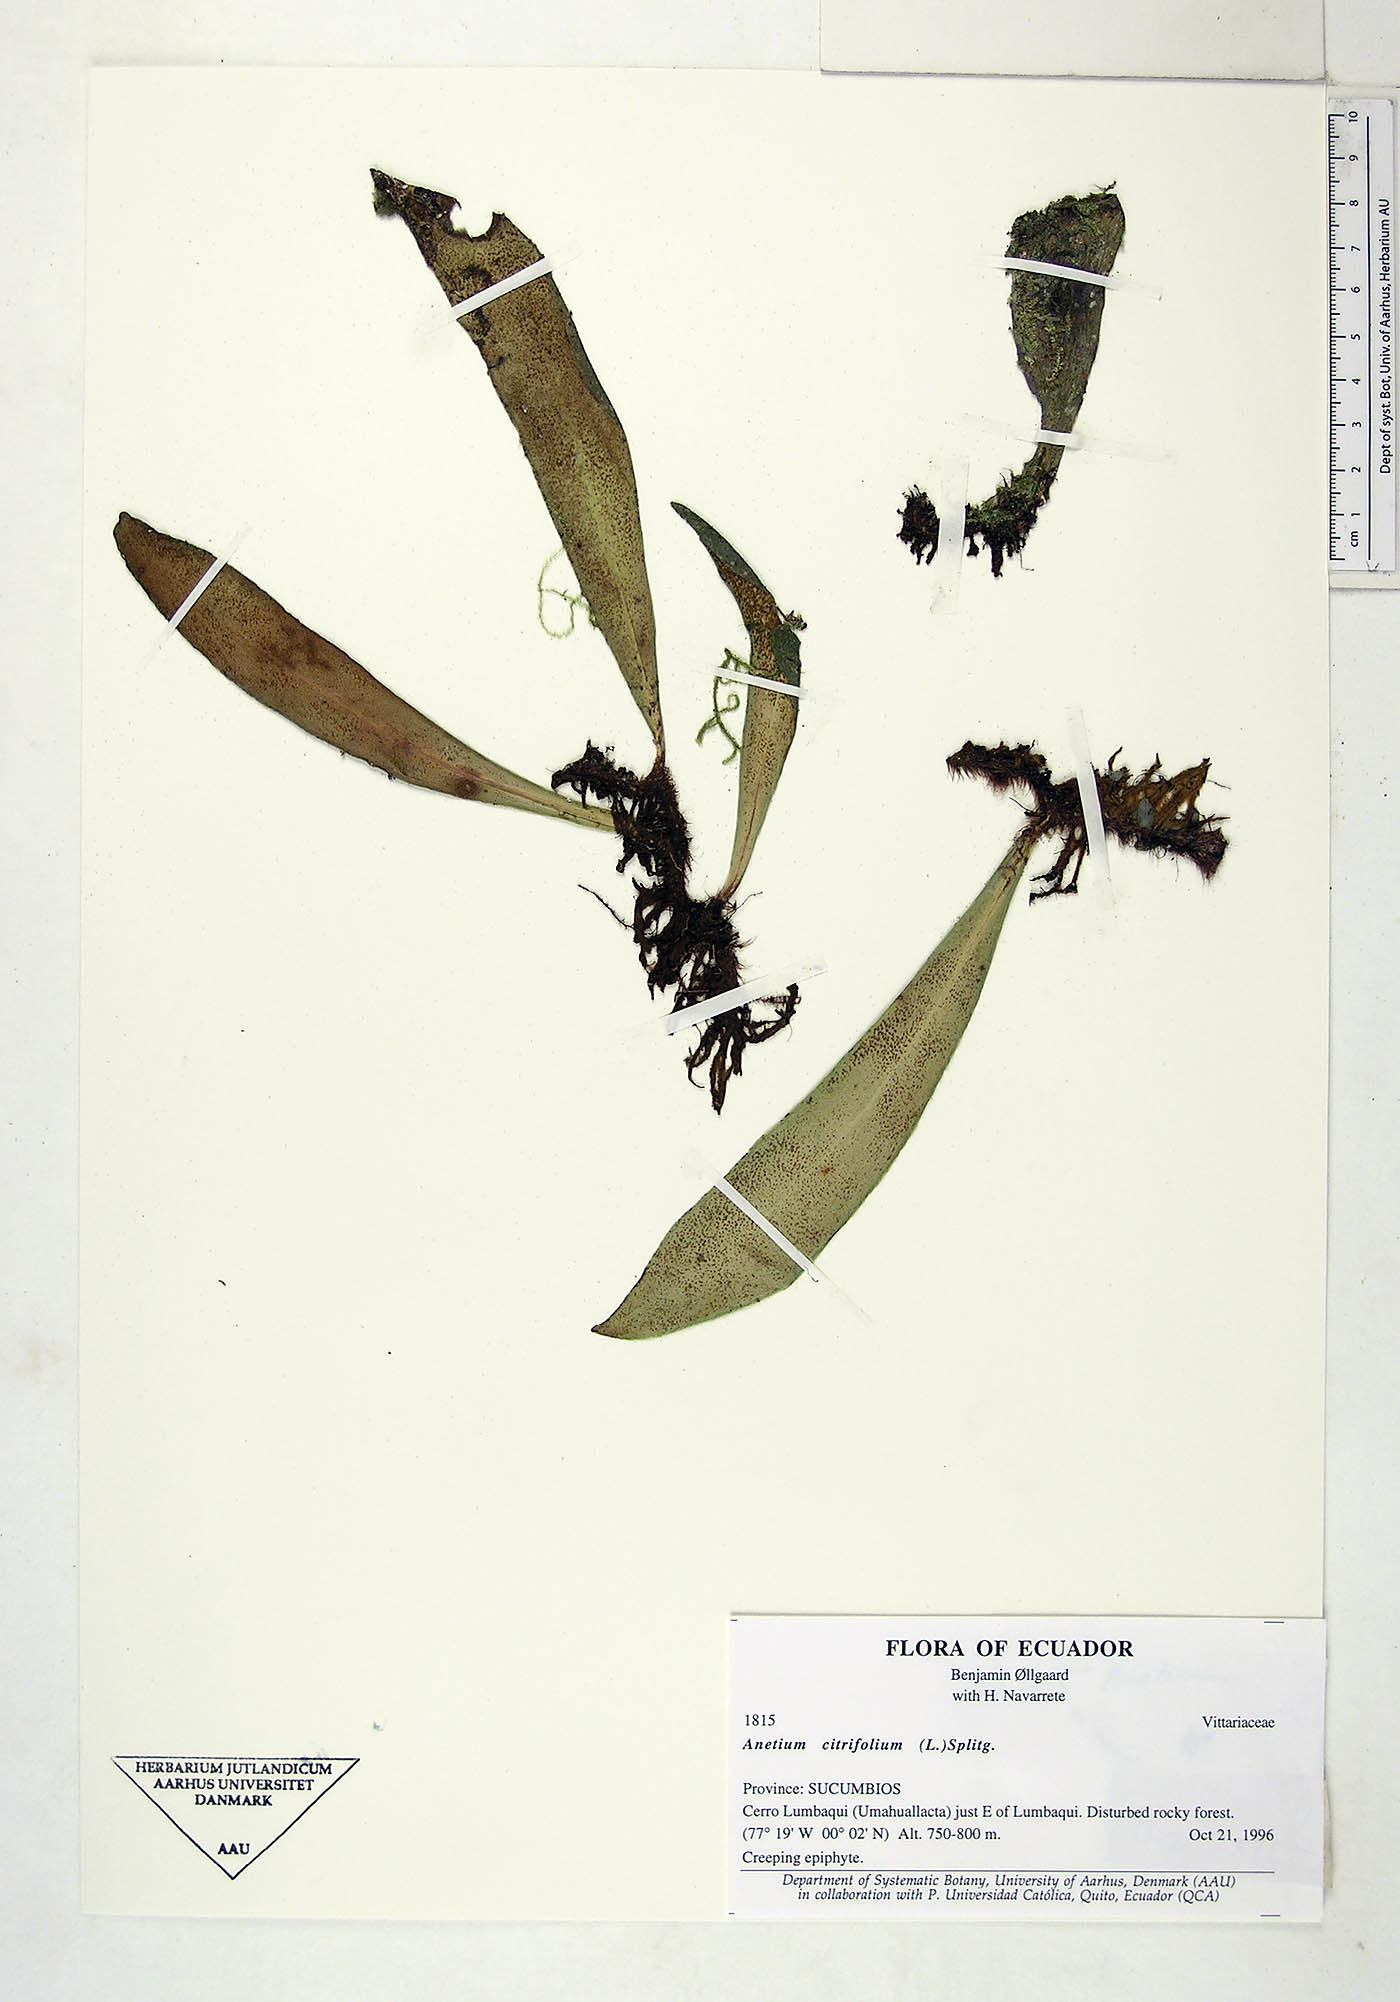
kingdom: Plantae
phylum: Tracheophyta
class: Polypodiopsida
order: Polypodiales
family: Pteridaceae
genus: Polytaenium
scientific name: Polytaenium citrifolium
